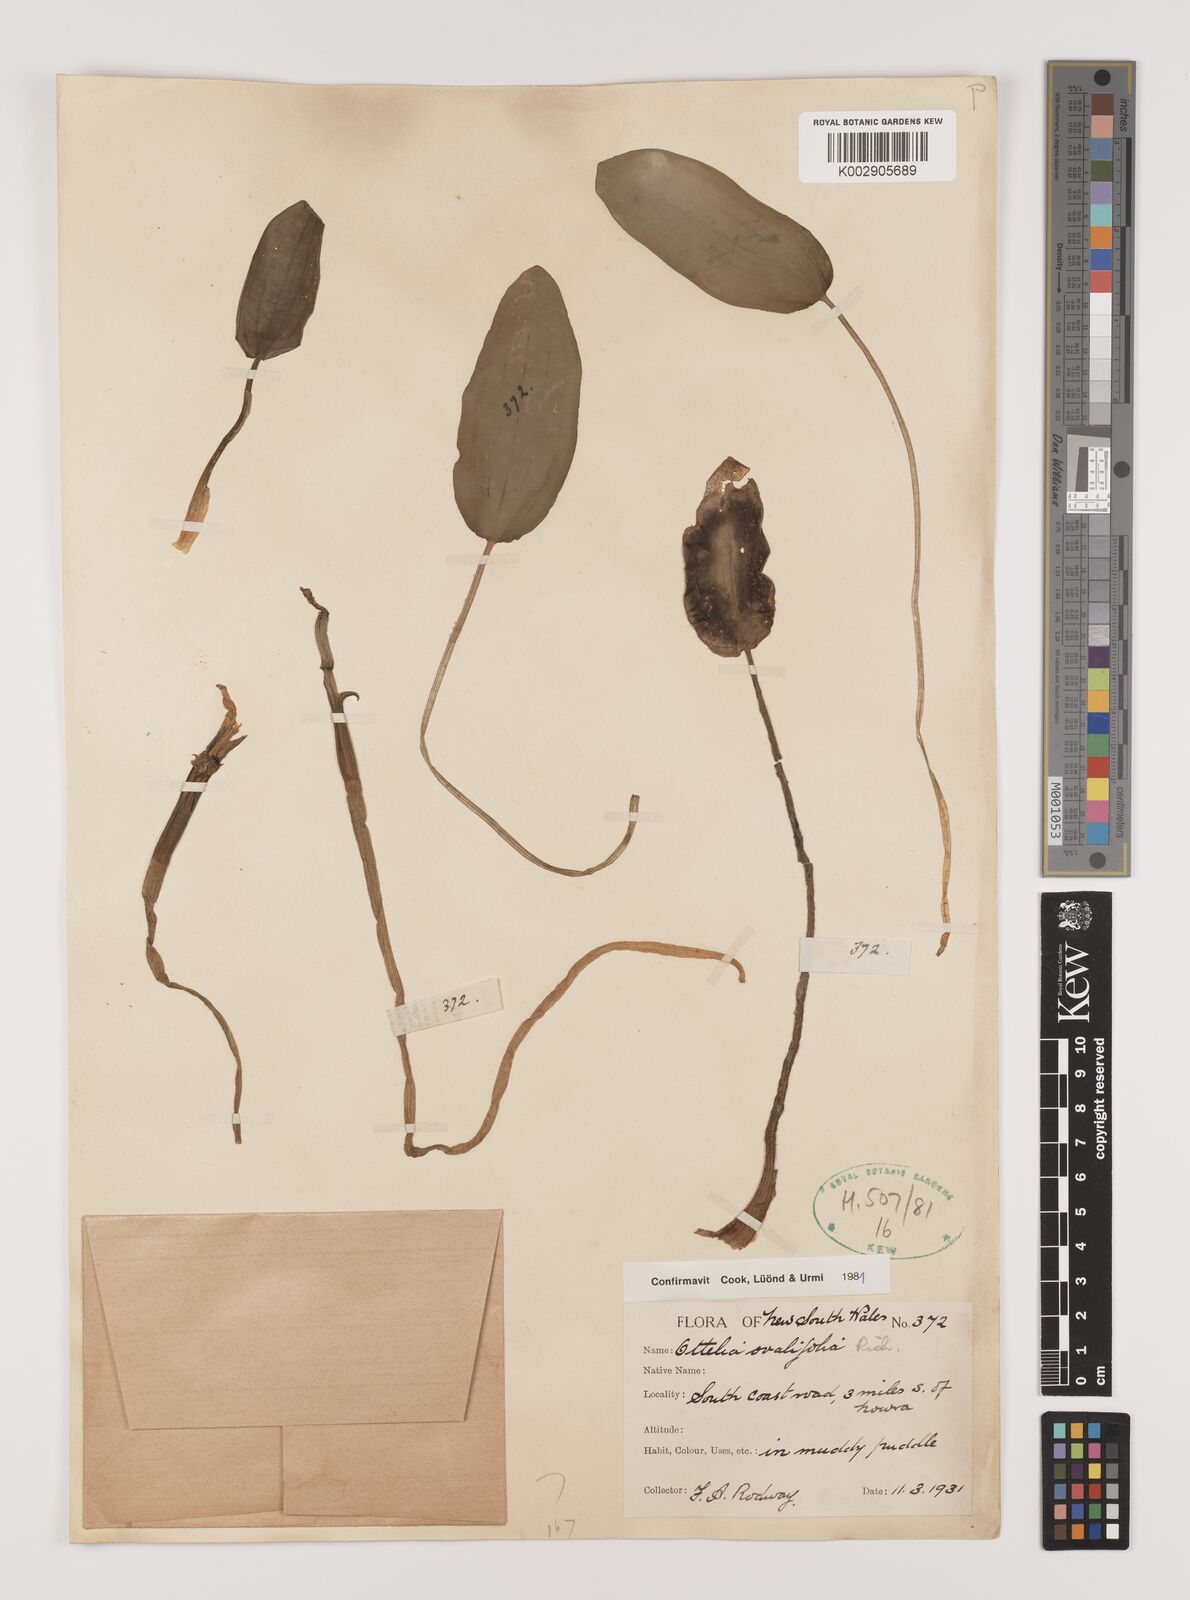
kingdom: Plantae
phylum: Tracheophyta
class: Liliopsida
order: Alismatales
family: Hydrocharitaceae
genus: Ottelia
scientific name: Ottelia ovalifolia
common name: Swamp-lily
